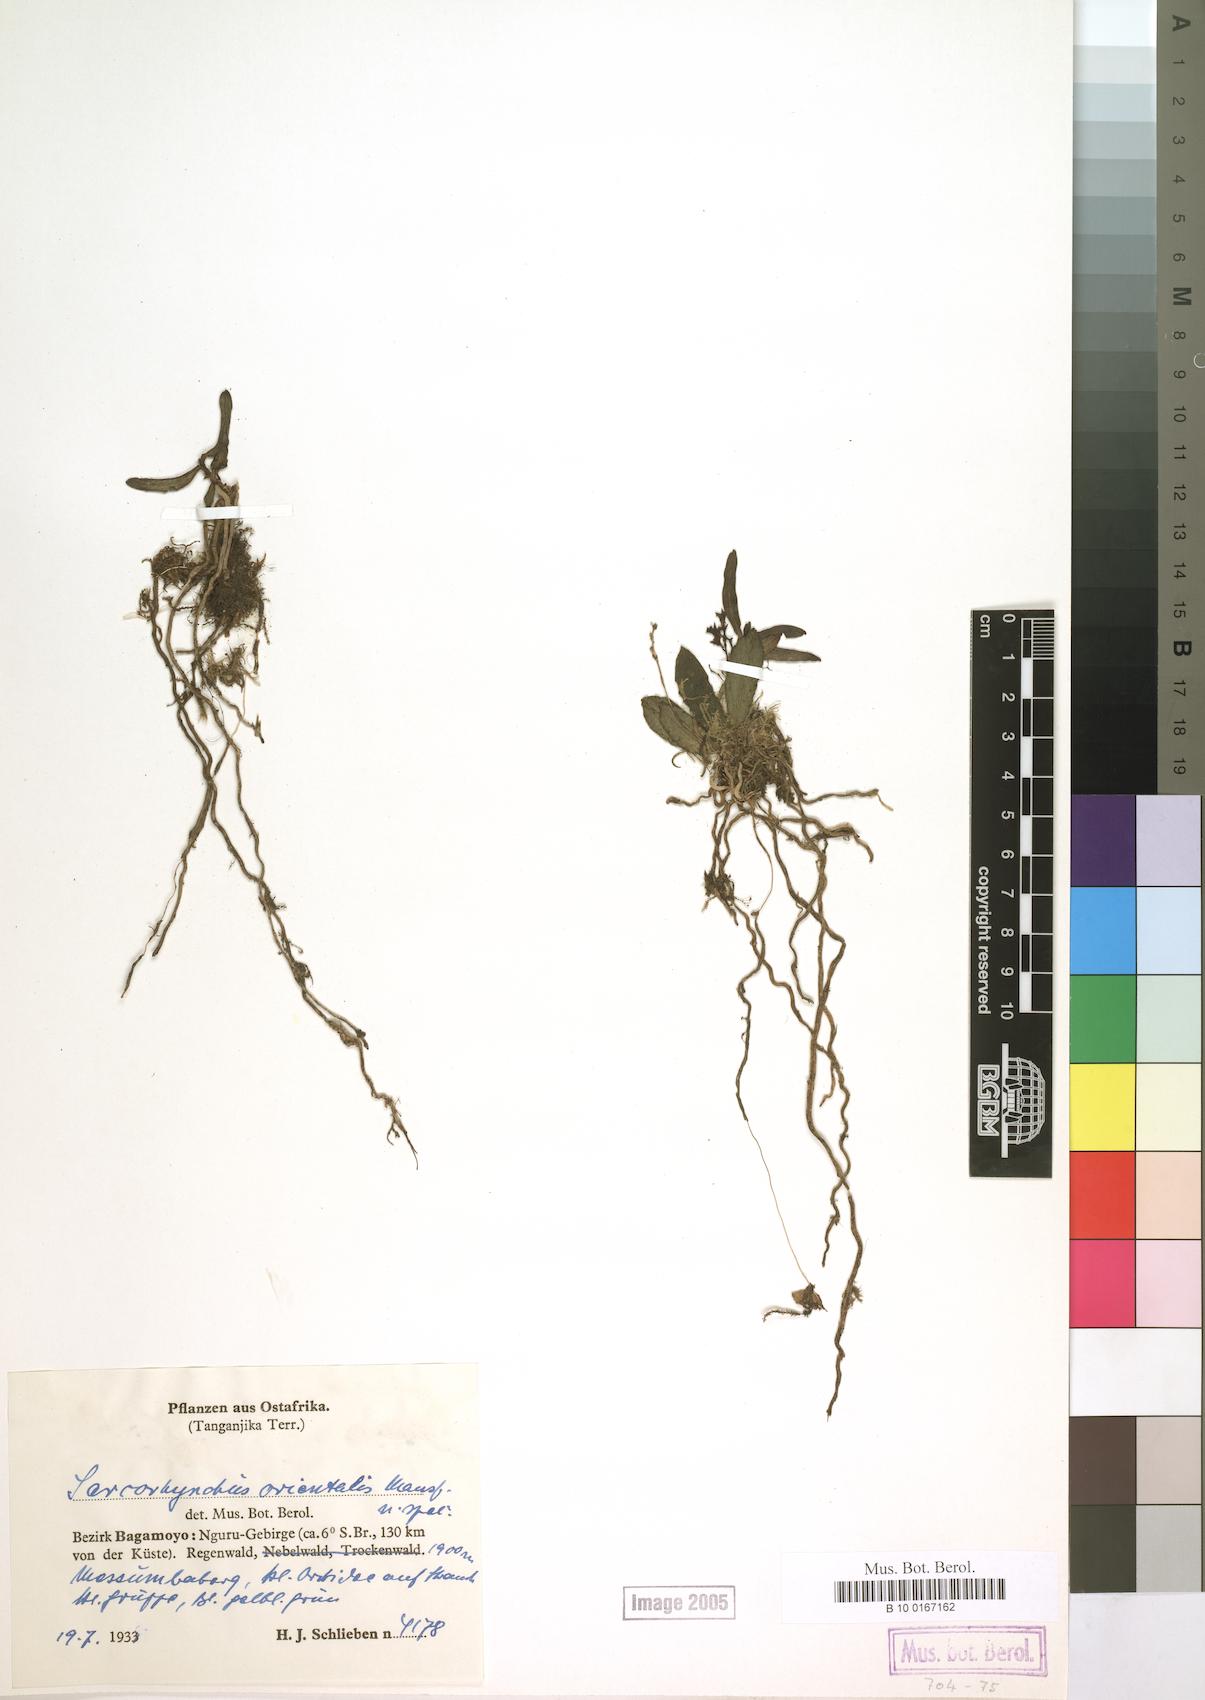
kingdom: Plantae
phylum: Tracheophyta
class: Liliopsida
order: Asparagales
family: Orchidaceae
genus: Rhipidoglossum
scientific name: Rhipidoglossum orientalis
